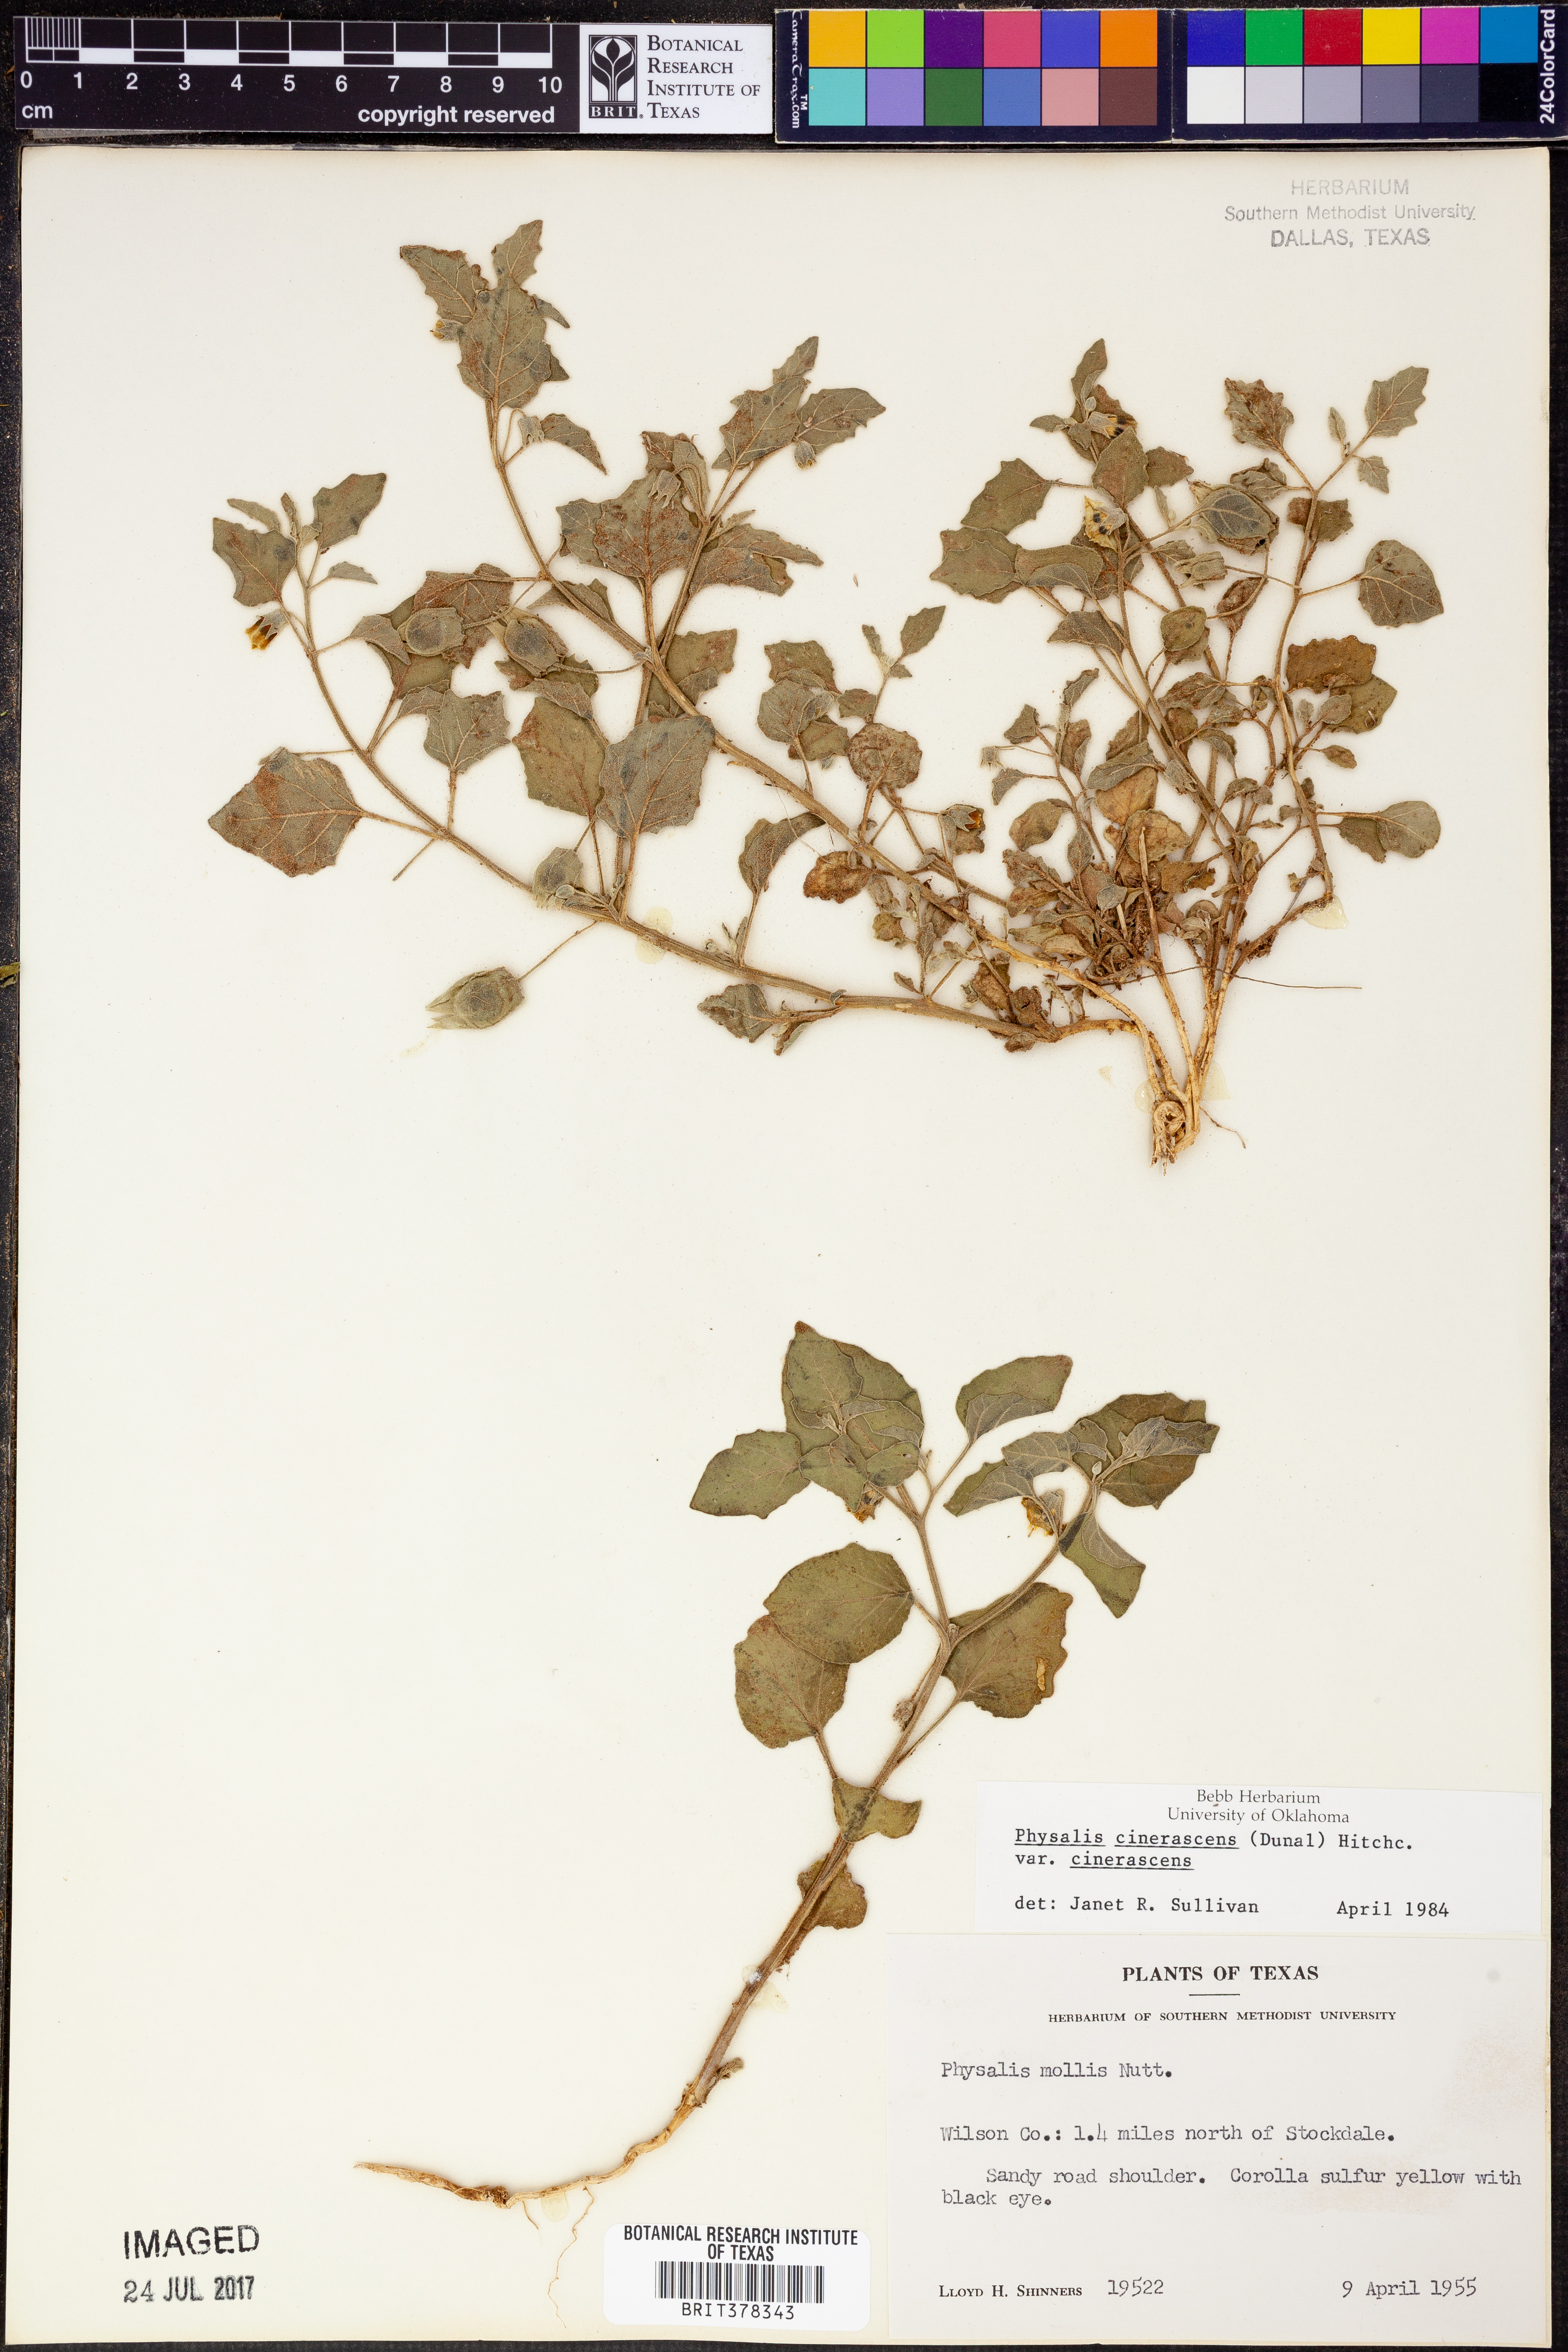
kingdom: Plantae
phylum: Tracheophyta
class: Magnoliopsida
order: Solanales
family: Solanaceae
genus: Physalis
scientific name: Physalis cinerascens
